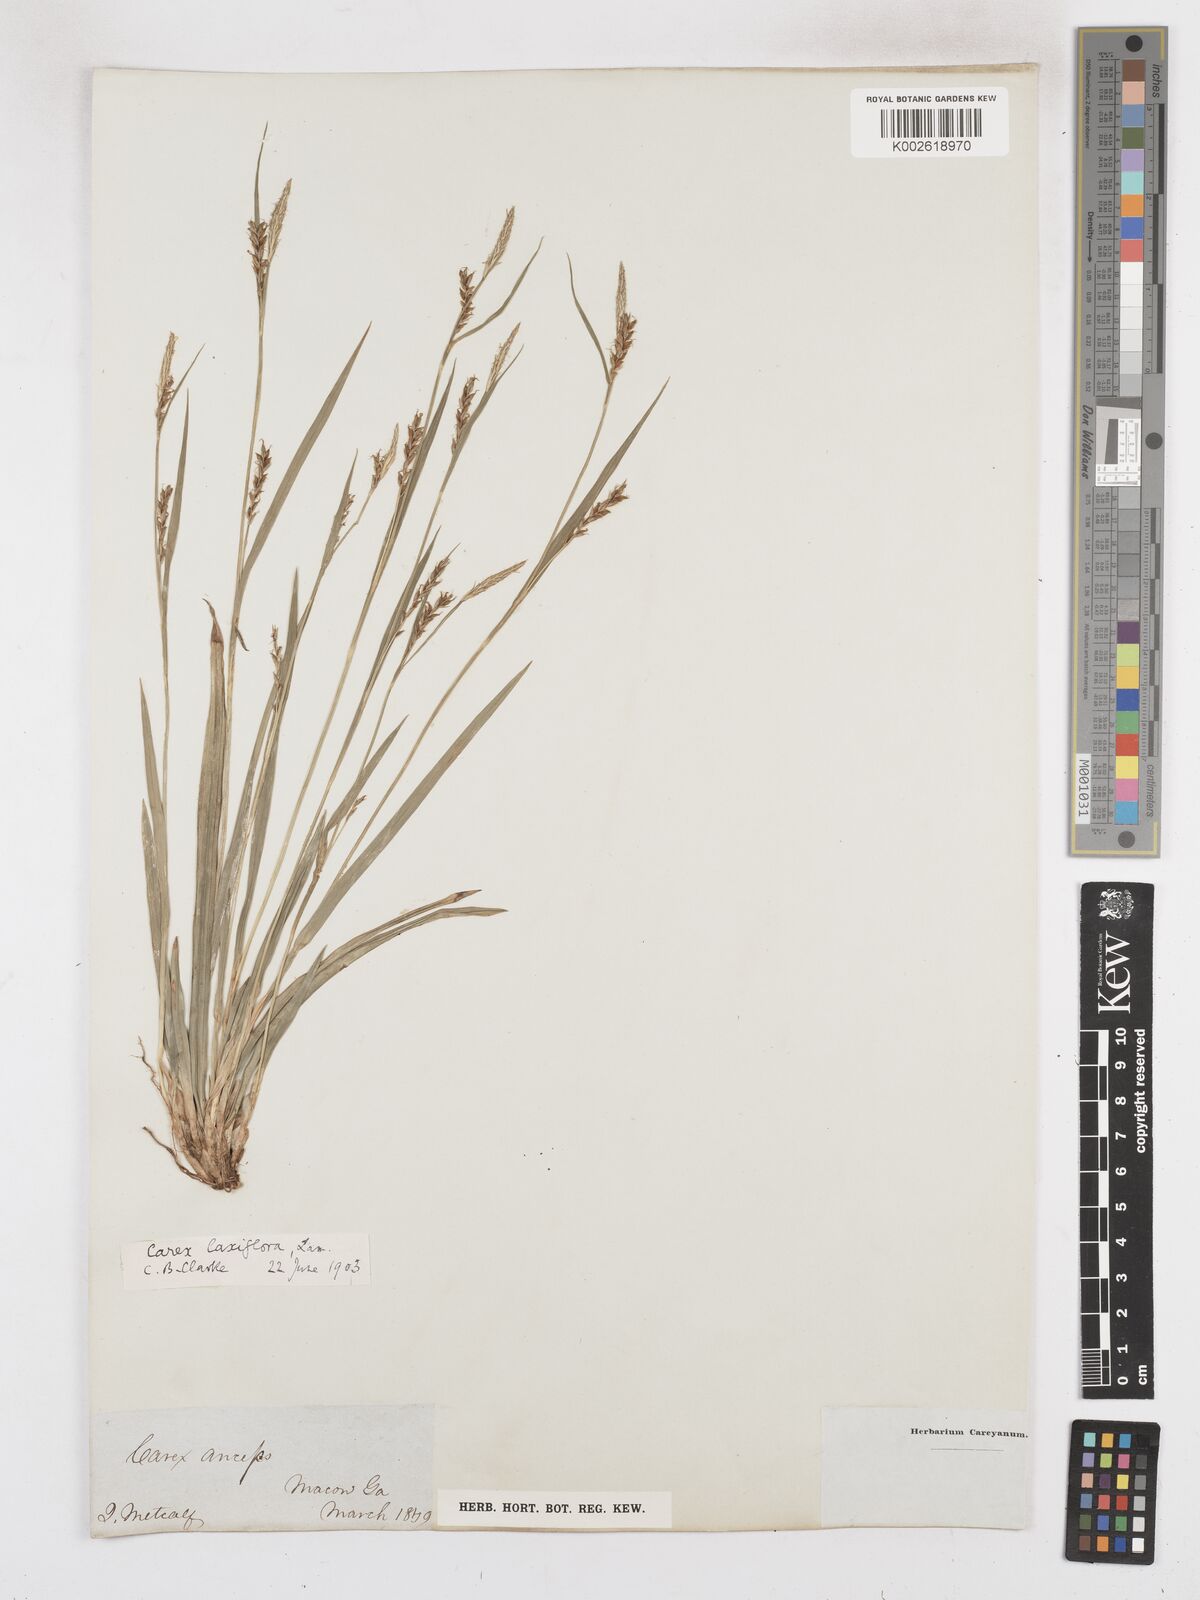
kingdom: Plantae
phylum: Tracheophyta
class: Liliopsida
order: Poales
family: Cyperaceae
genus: Carex
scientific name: Carex laxiflora
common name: Beech wood sedge
